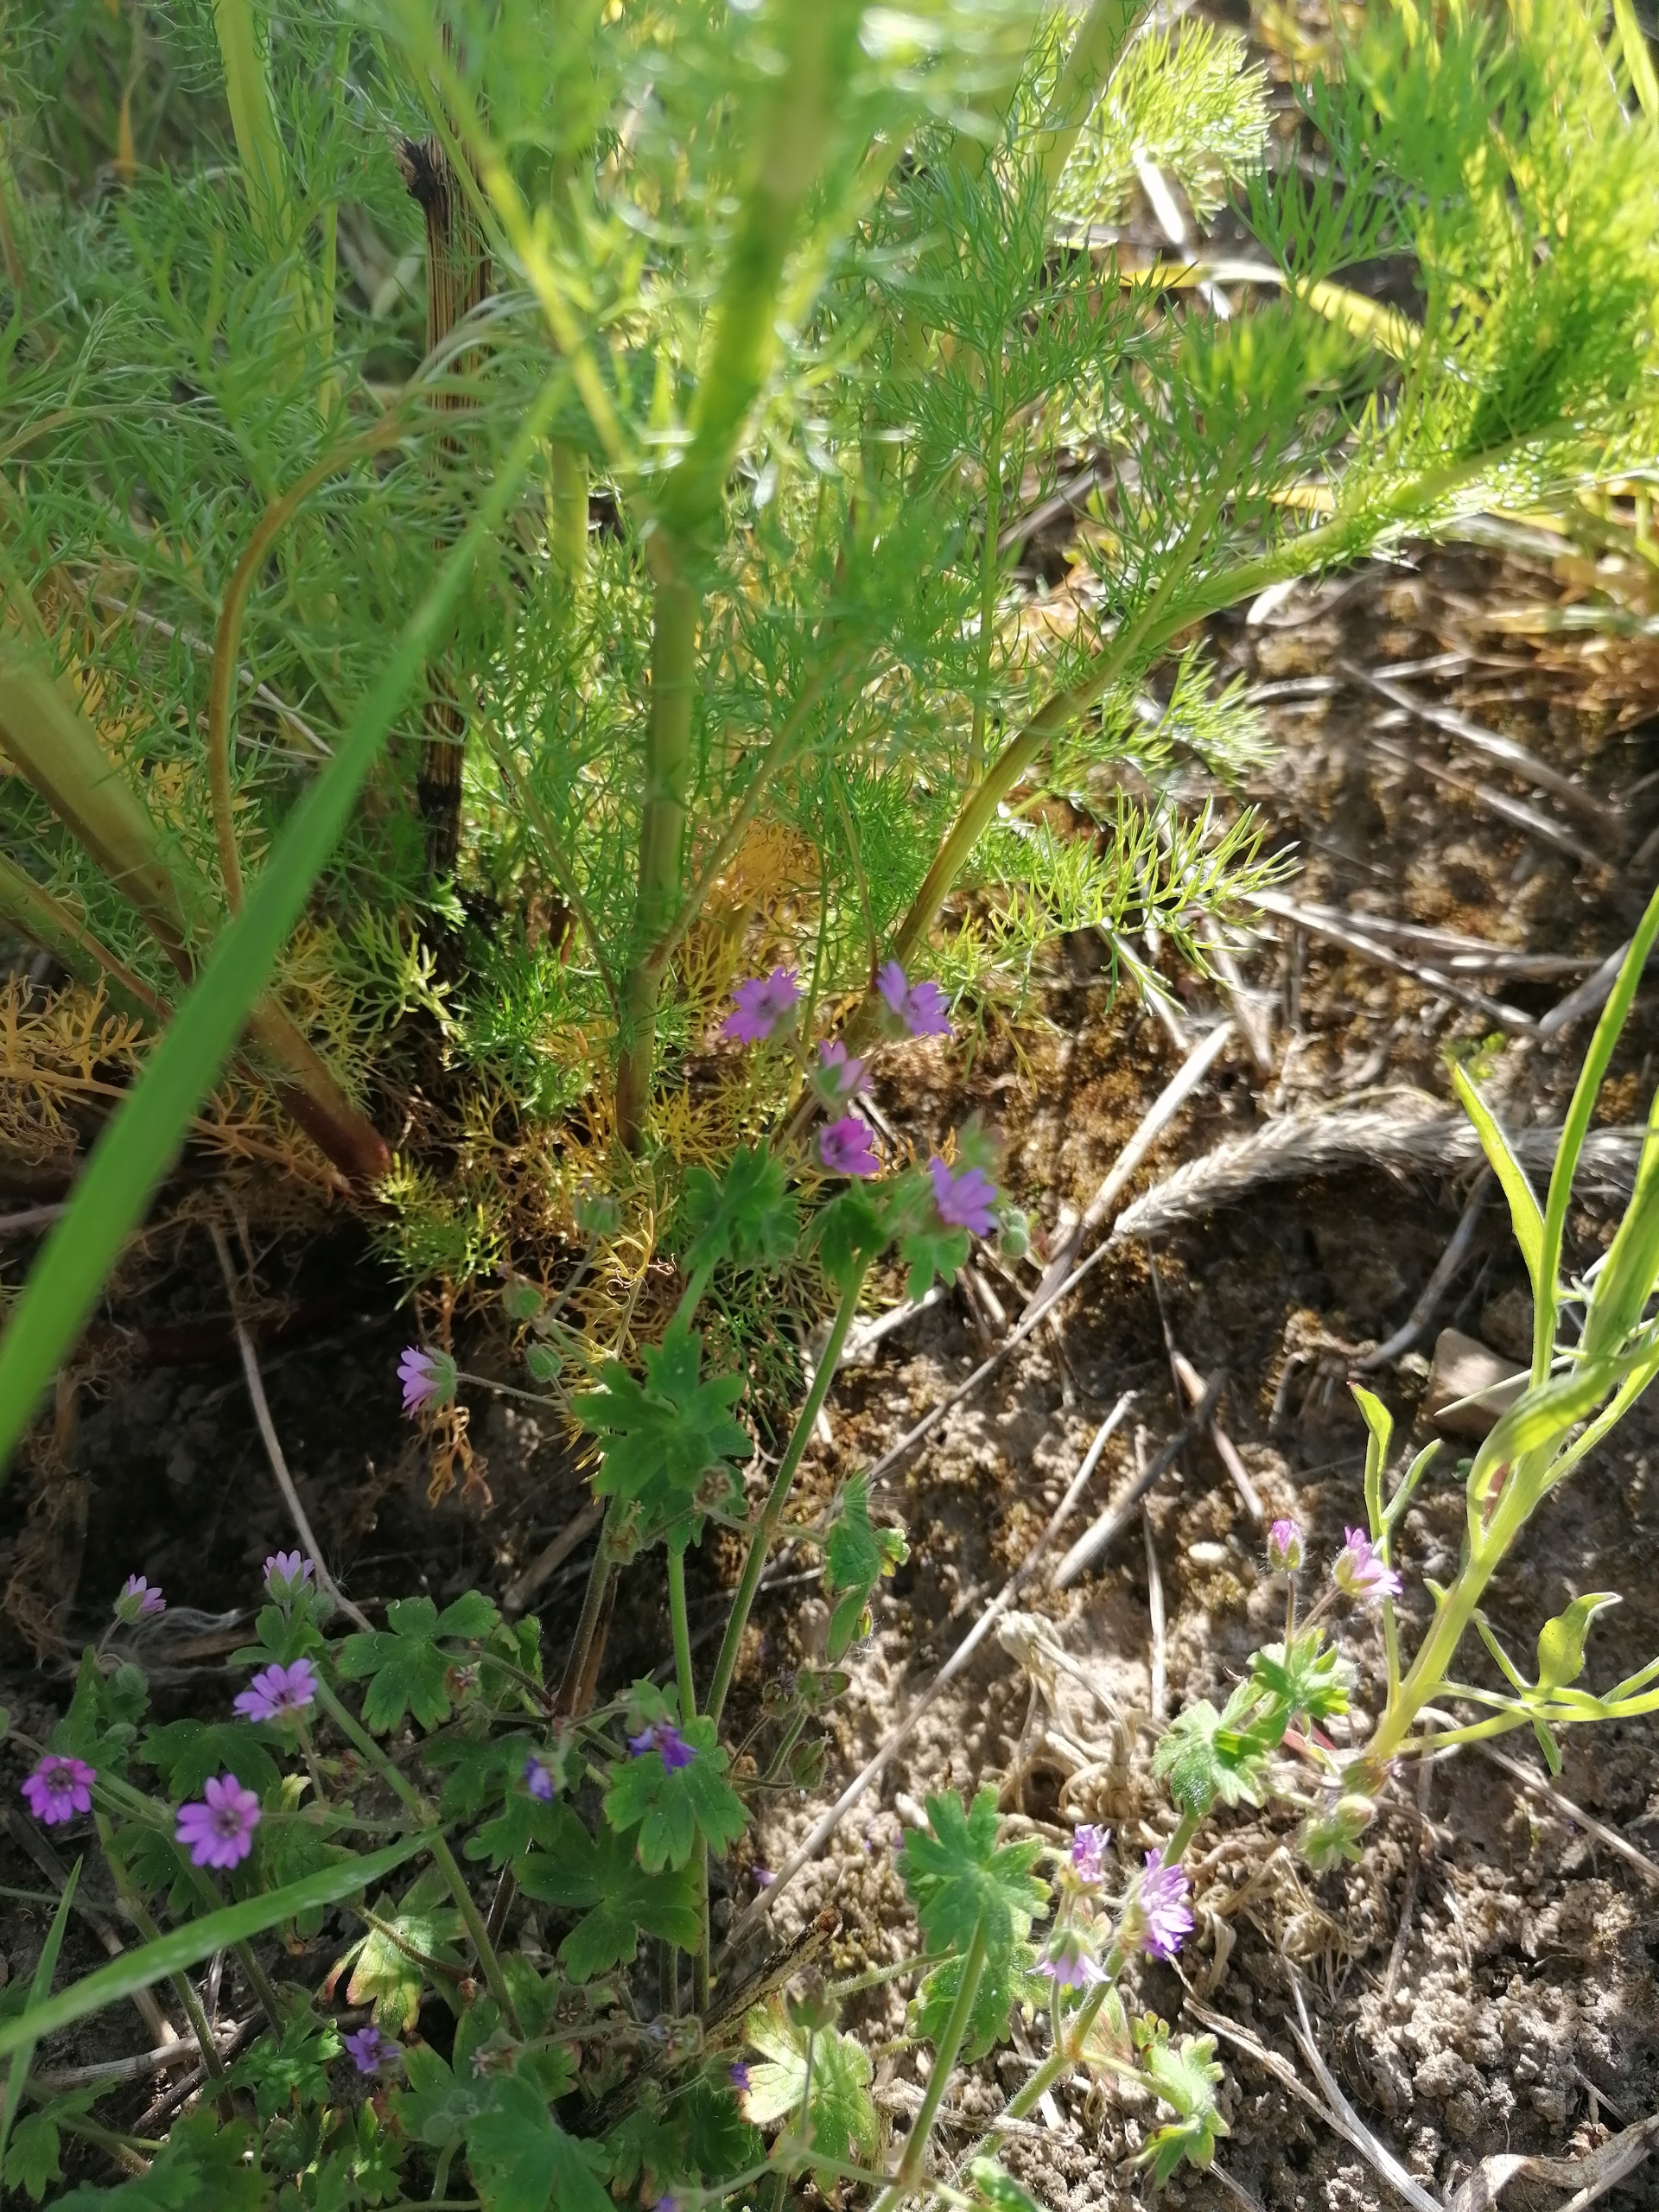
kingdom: Plantae
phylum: Tracheophyta
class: Magnoliopsida
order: Geraniales
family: Geraniaceae
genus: Geranium
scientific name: Geranium molle
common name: Blød storkenæb
